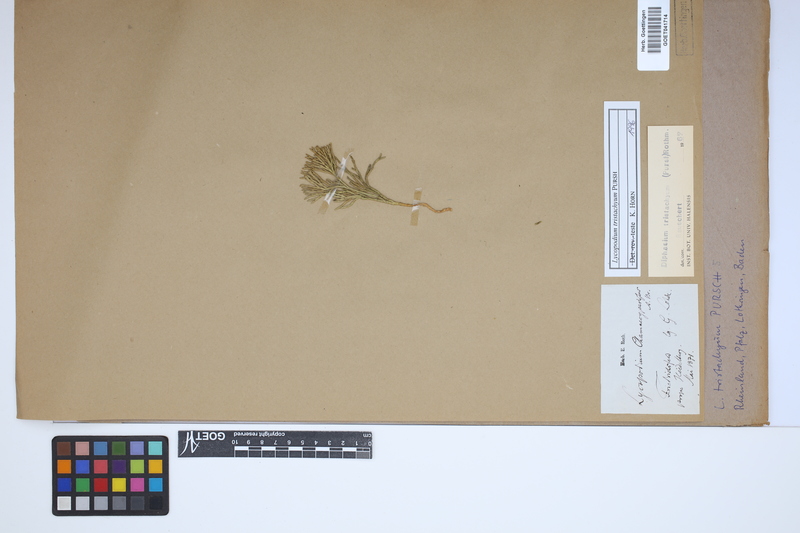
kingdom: Plantae
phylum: Tracheophyta
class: Lycopodiopsida
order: Lycopodiales
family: Lycopodiaceae
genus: Diphasiastrum
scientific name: Diphasiastrum tristachyum
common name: Blue ground-cedar
